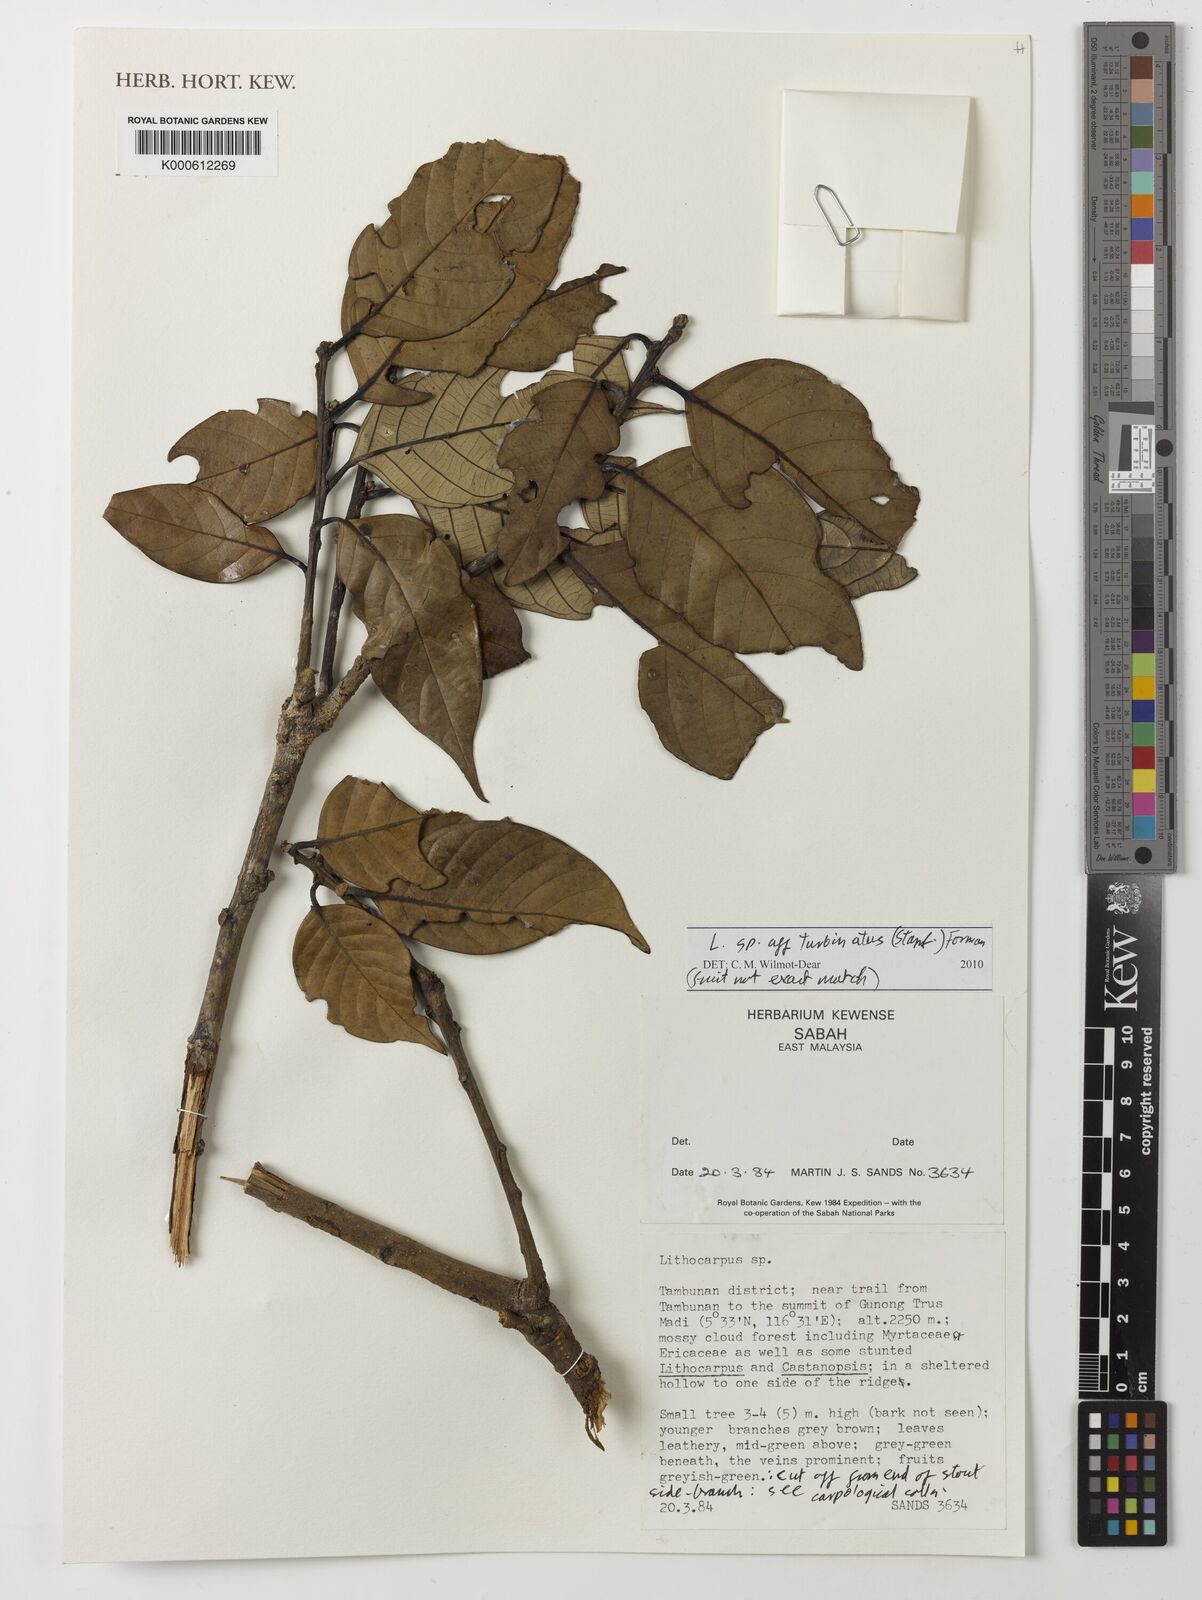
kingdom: Plantae
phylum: Tracheophyta
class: Magnoliopsida
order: Fagales
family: Fagaceae
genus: Lithocarpus
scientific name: Lithocarpus turbinatus
